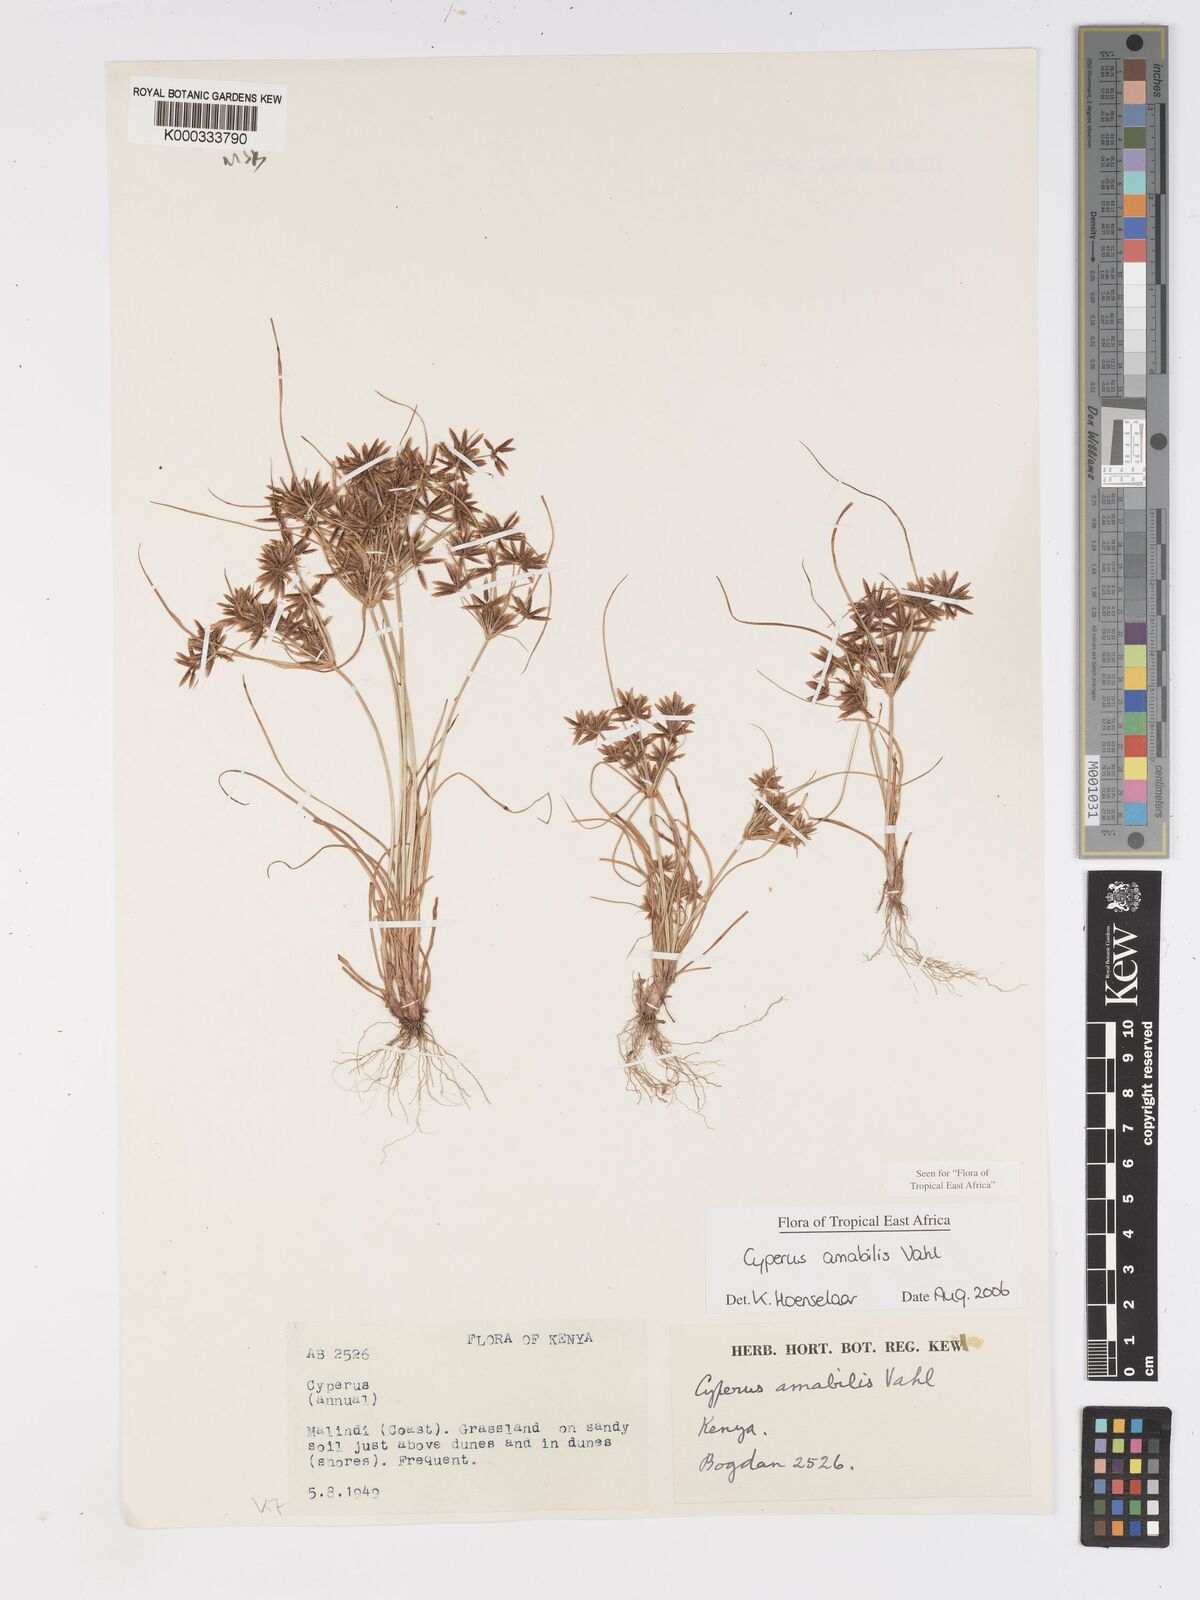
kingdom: Plantae
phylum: Tracheophyta
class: Liliopsida
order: Poales
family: Cyperaceae
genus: Cyperus
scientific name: Cyperus amabilis
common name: Foothill flat sedge
